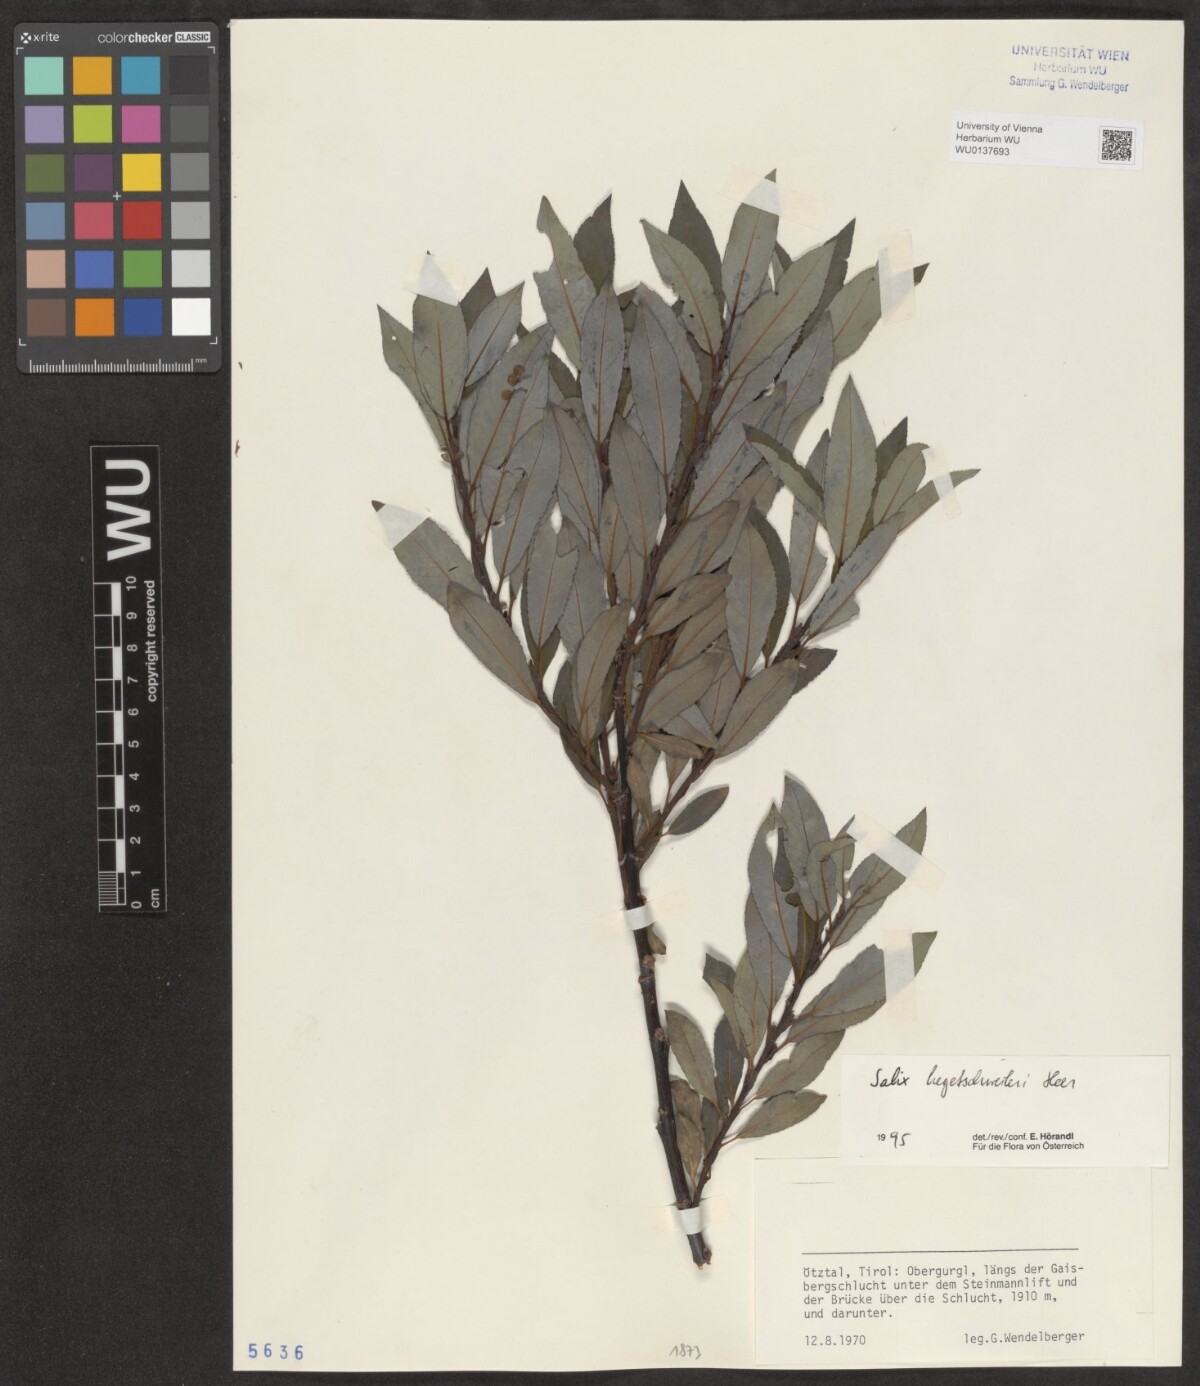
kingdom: Plantae
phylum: Tracheophyta
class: Magnoliopsida
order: Malpighiales
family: Salicaceae
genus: Salix
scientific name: Salix hegetschweileri
